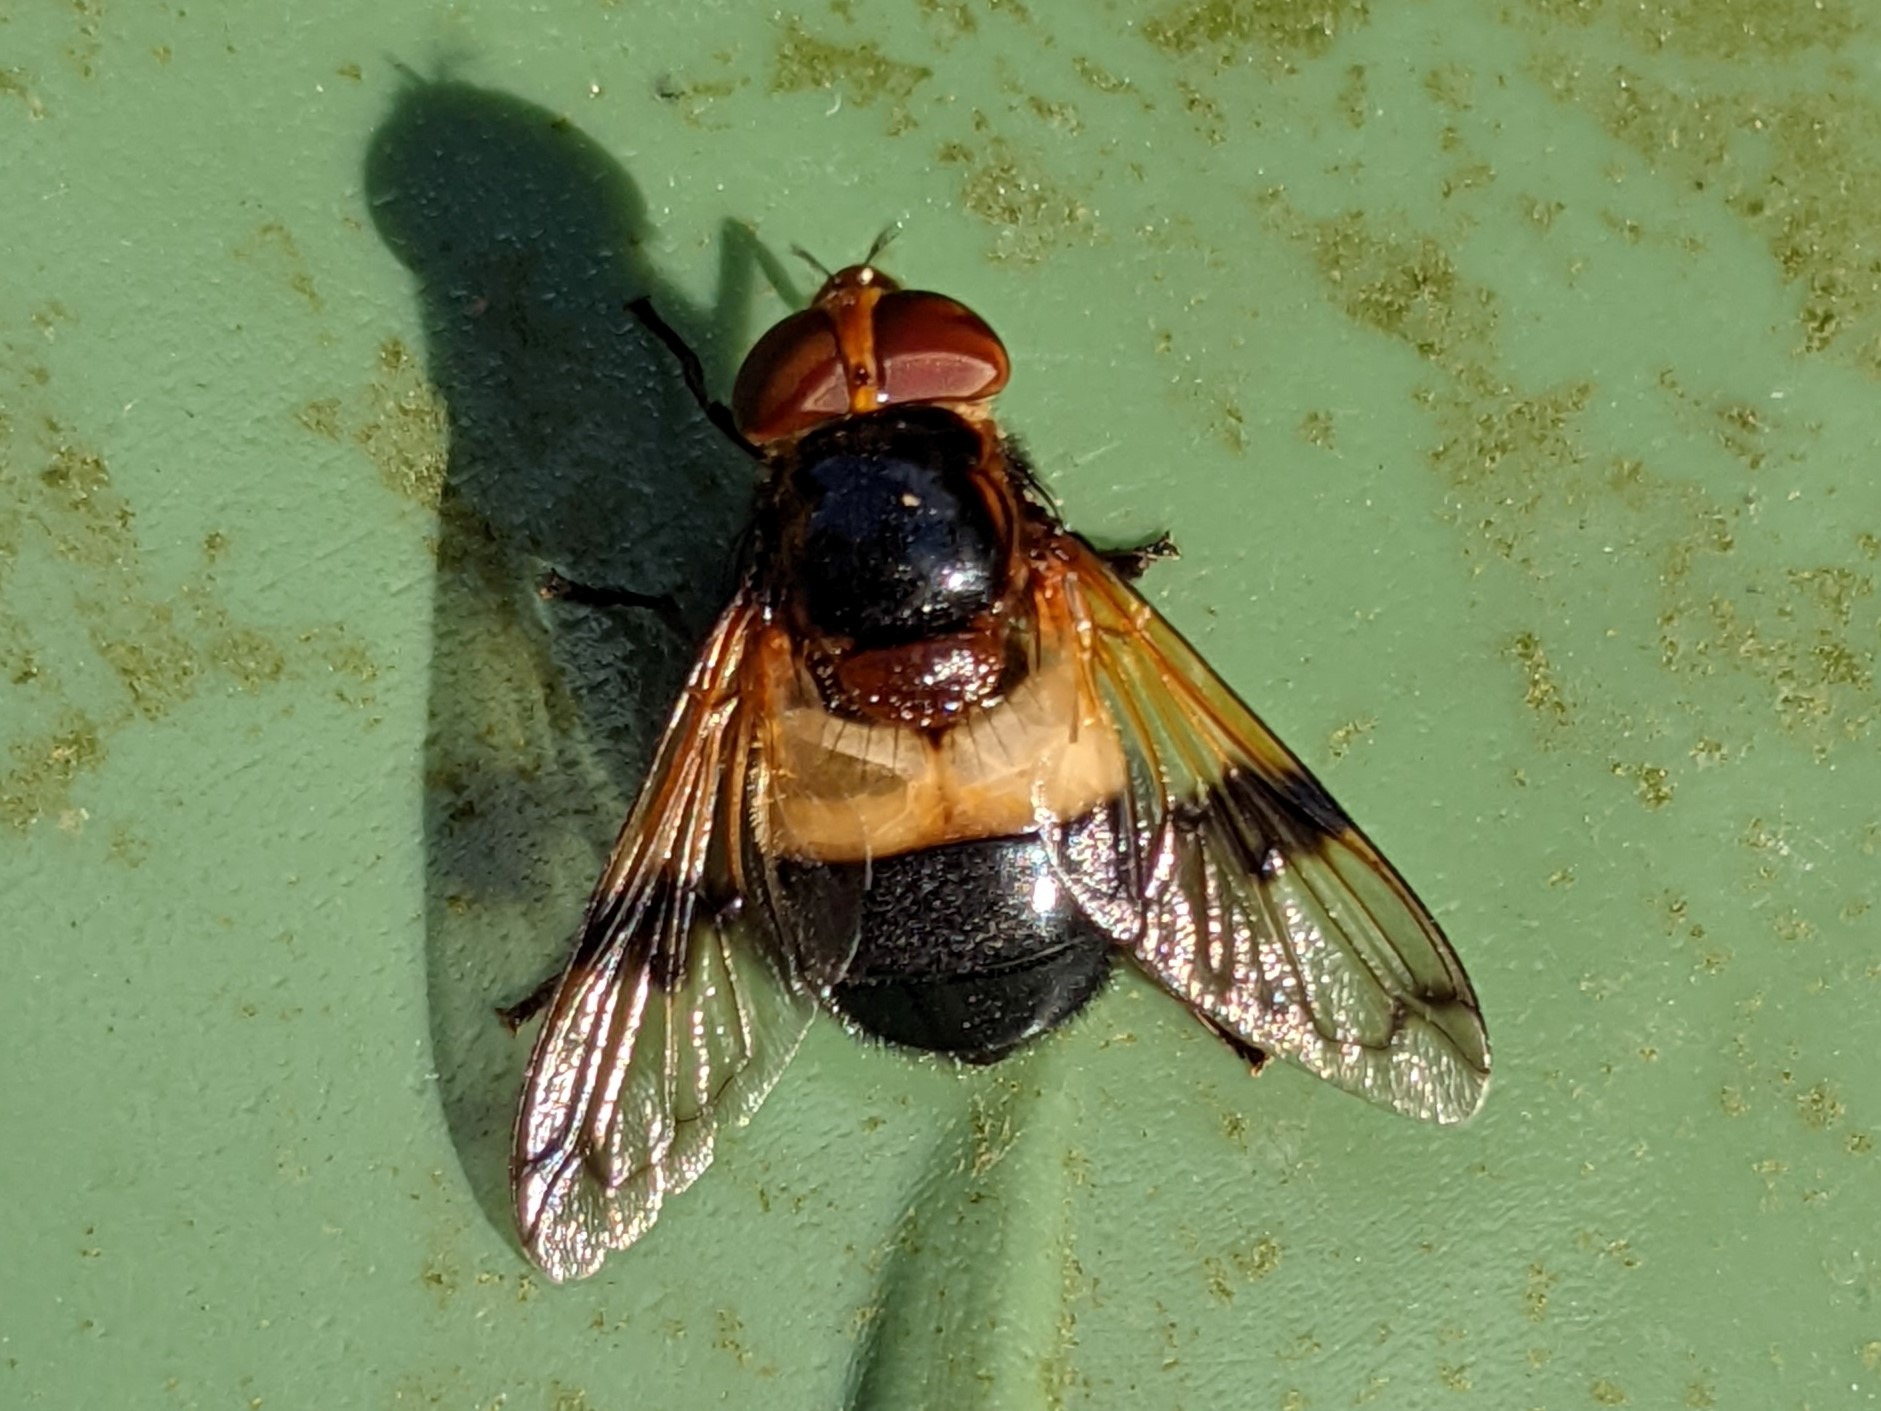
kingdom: Animalia
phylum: Arthropoda
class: Insecta
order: Diptera
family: Syrphidae
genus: Volucella
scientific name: Volucella pellucens
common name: Hvidbåndet humlesvirreflue
